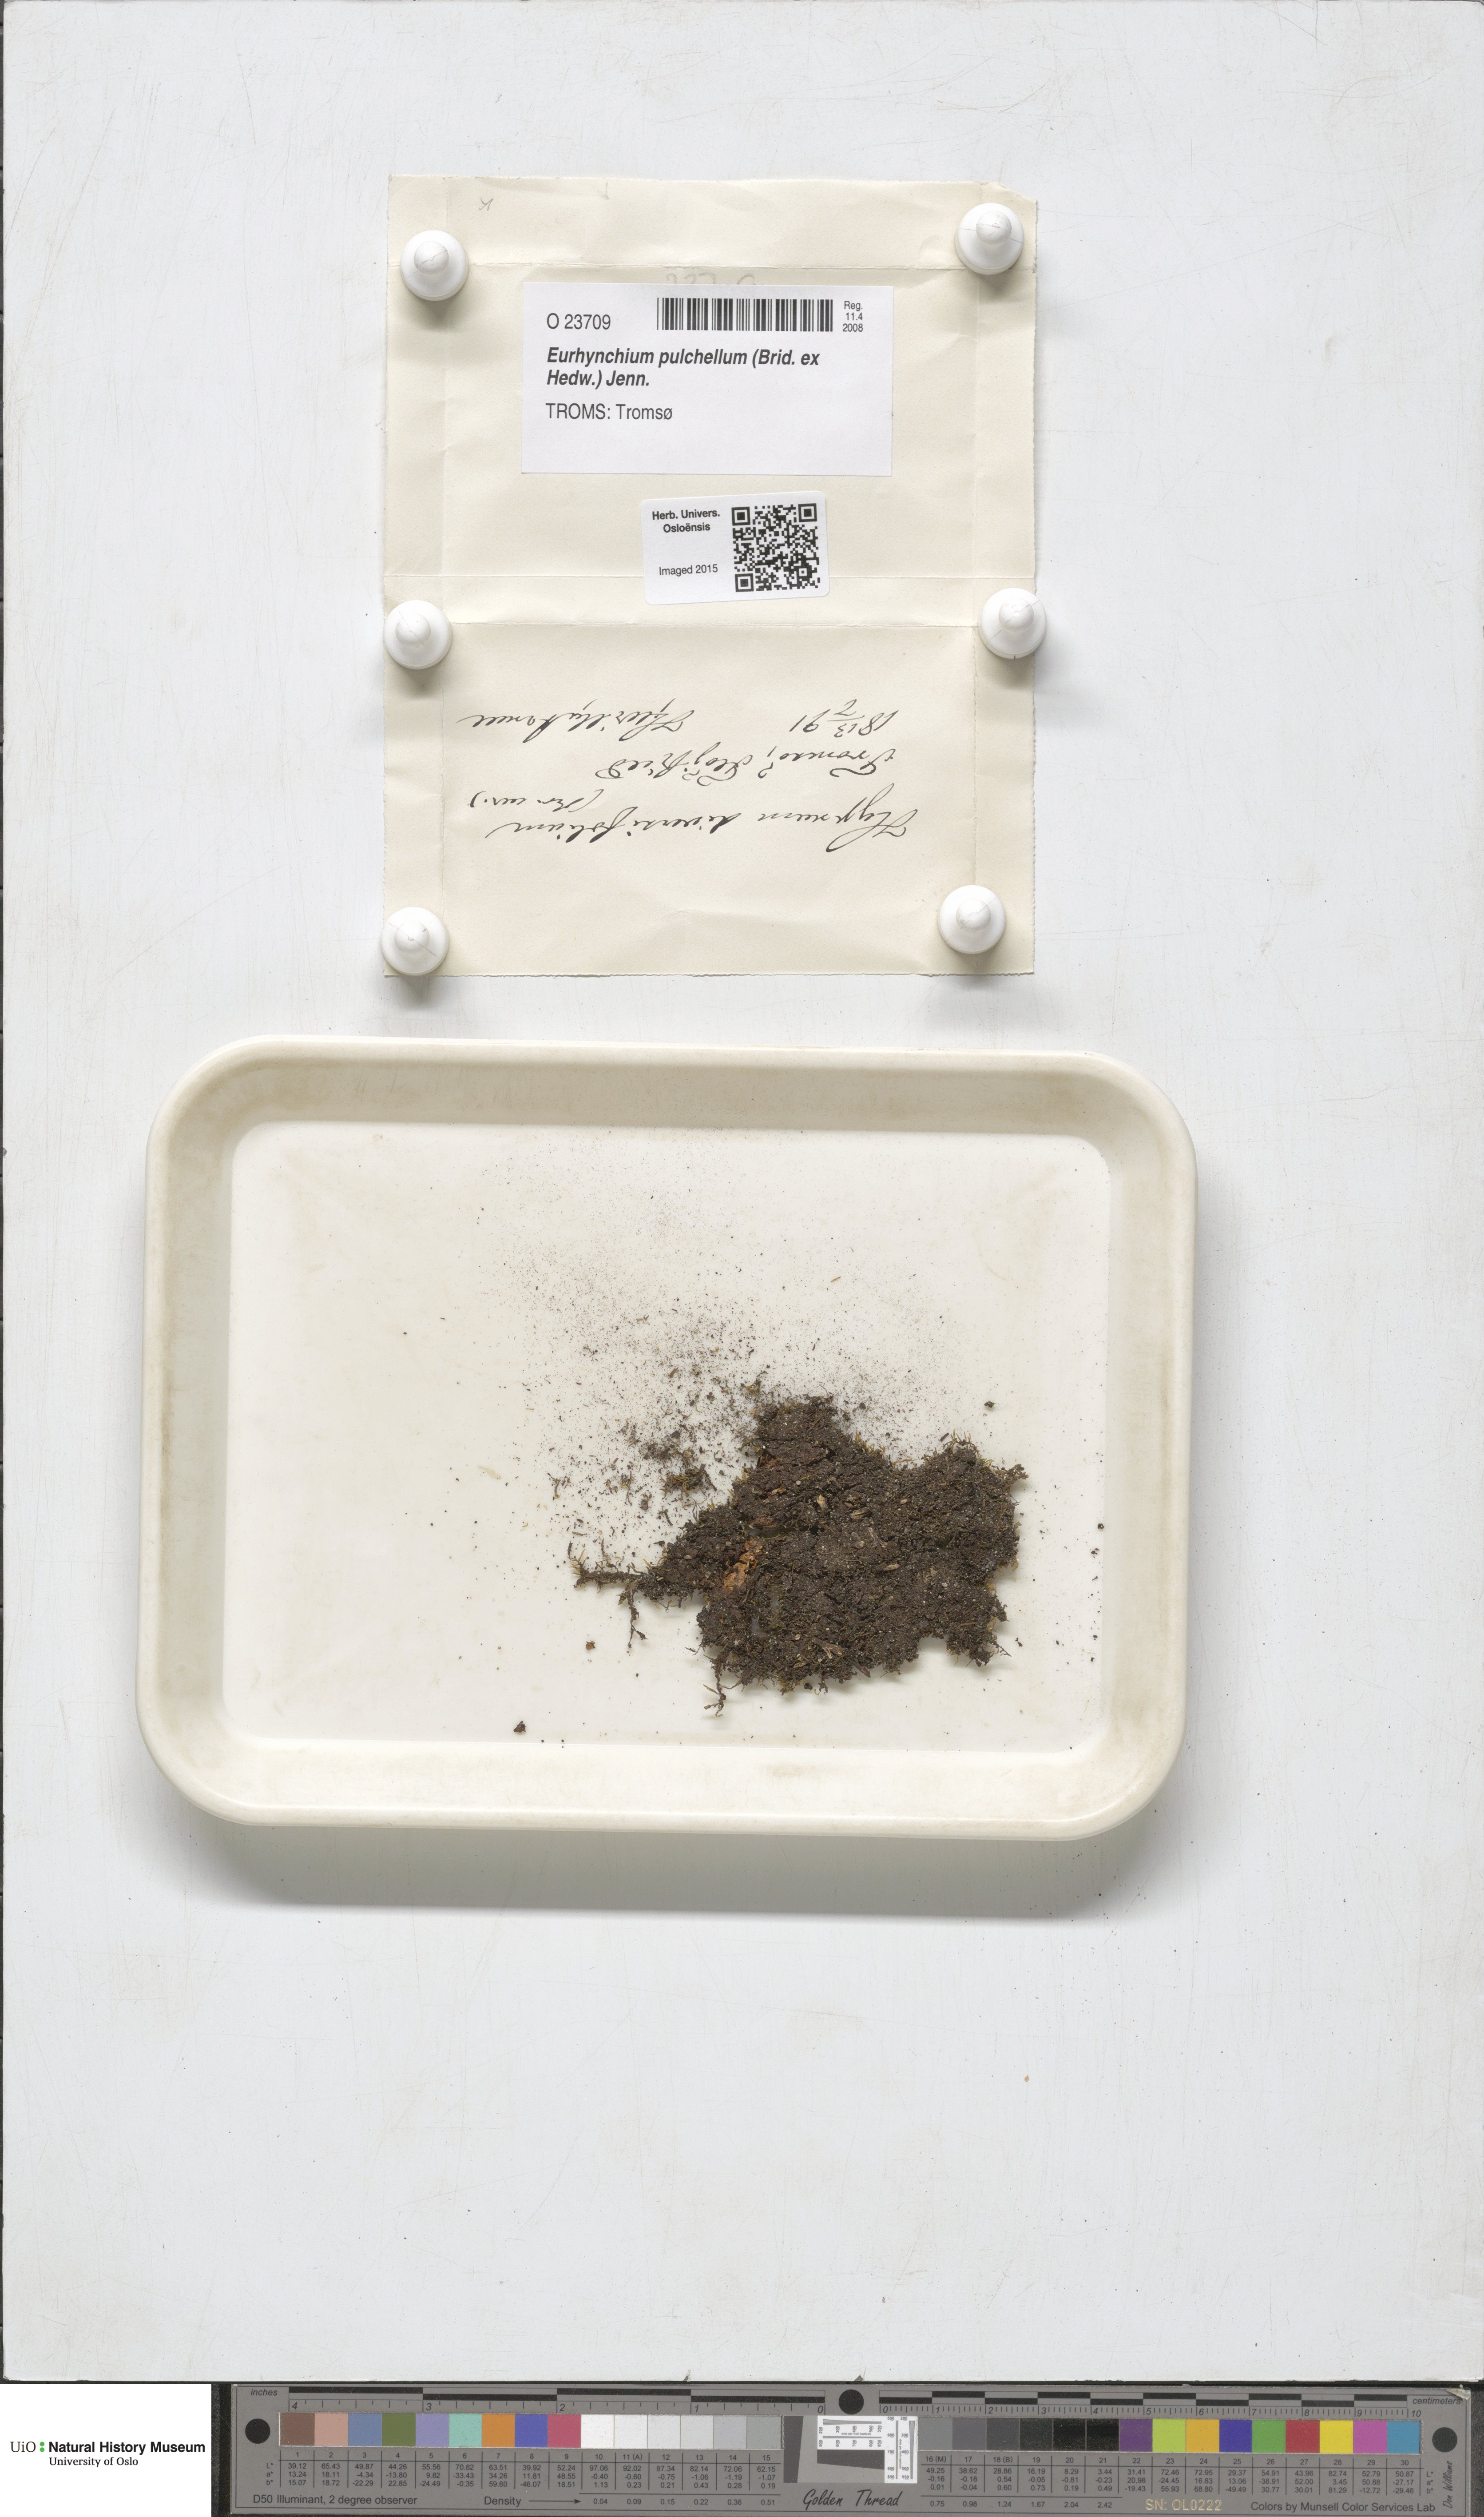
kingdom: Plantae
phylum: Bryophyta
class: Bryopsida
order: Hypnales
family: Brachytheciaceae
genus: Eurhynchiastrum
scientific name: Eurhynchiastrum diversifolium
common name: Elegant feather-moss
